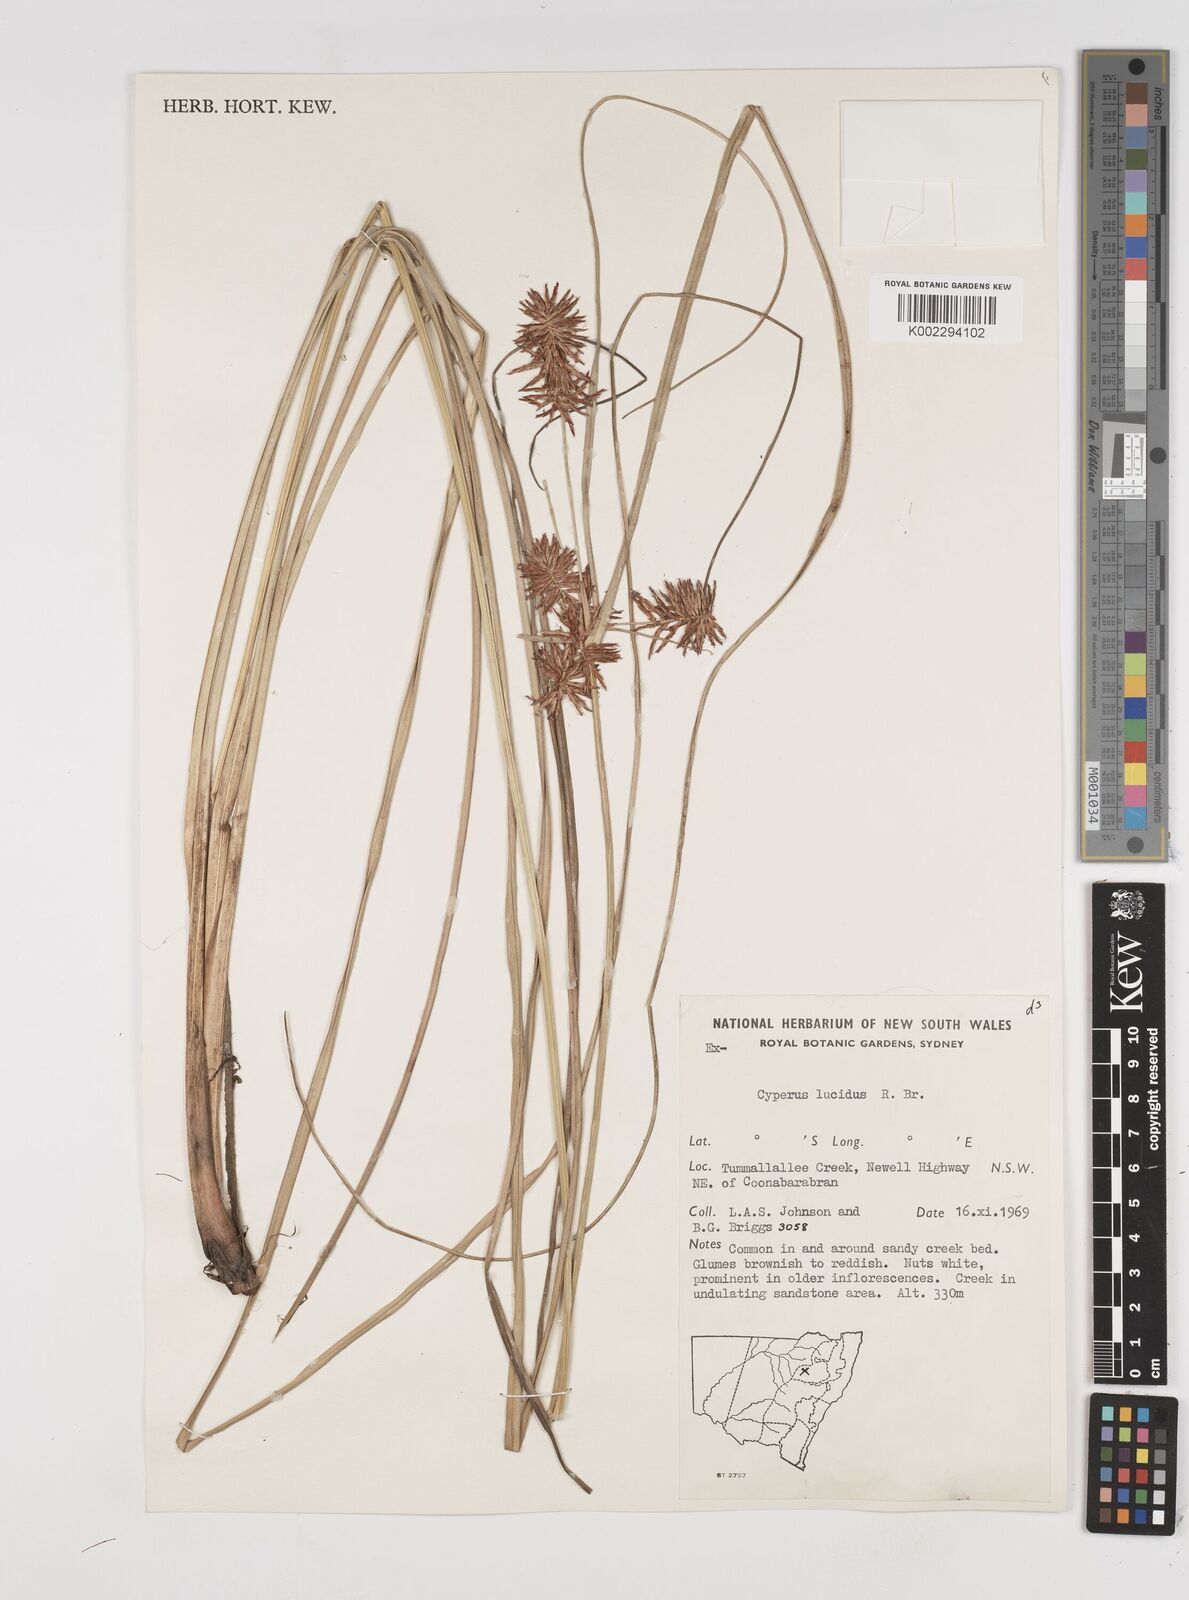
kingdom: Plantae
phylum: Tracheophyta
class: Liliopsida
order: Poales
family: Cyperaceae
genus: Cyperus
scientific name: Cyperus lucidus
